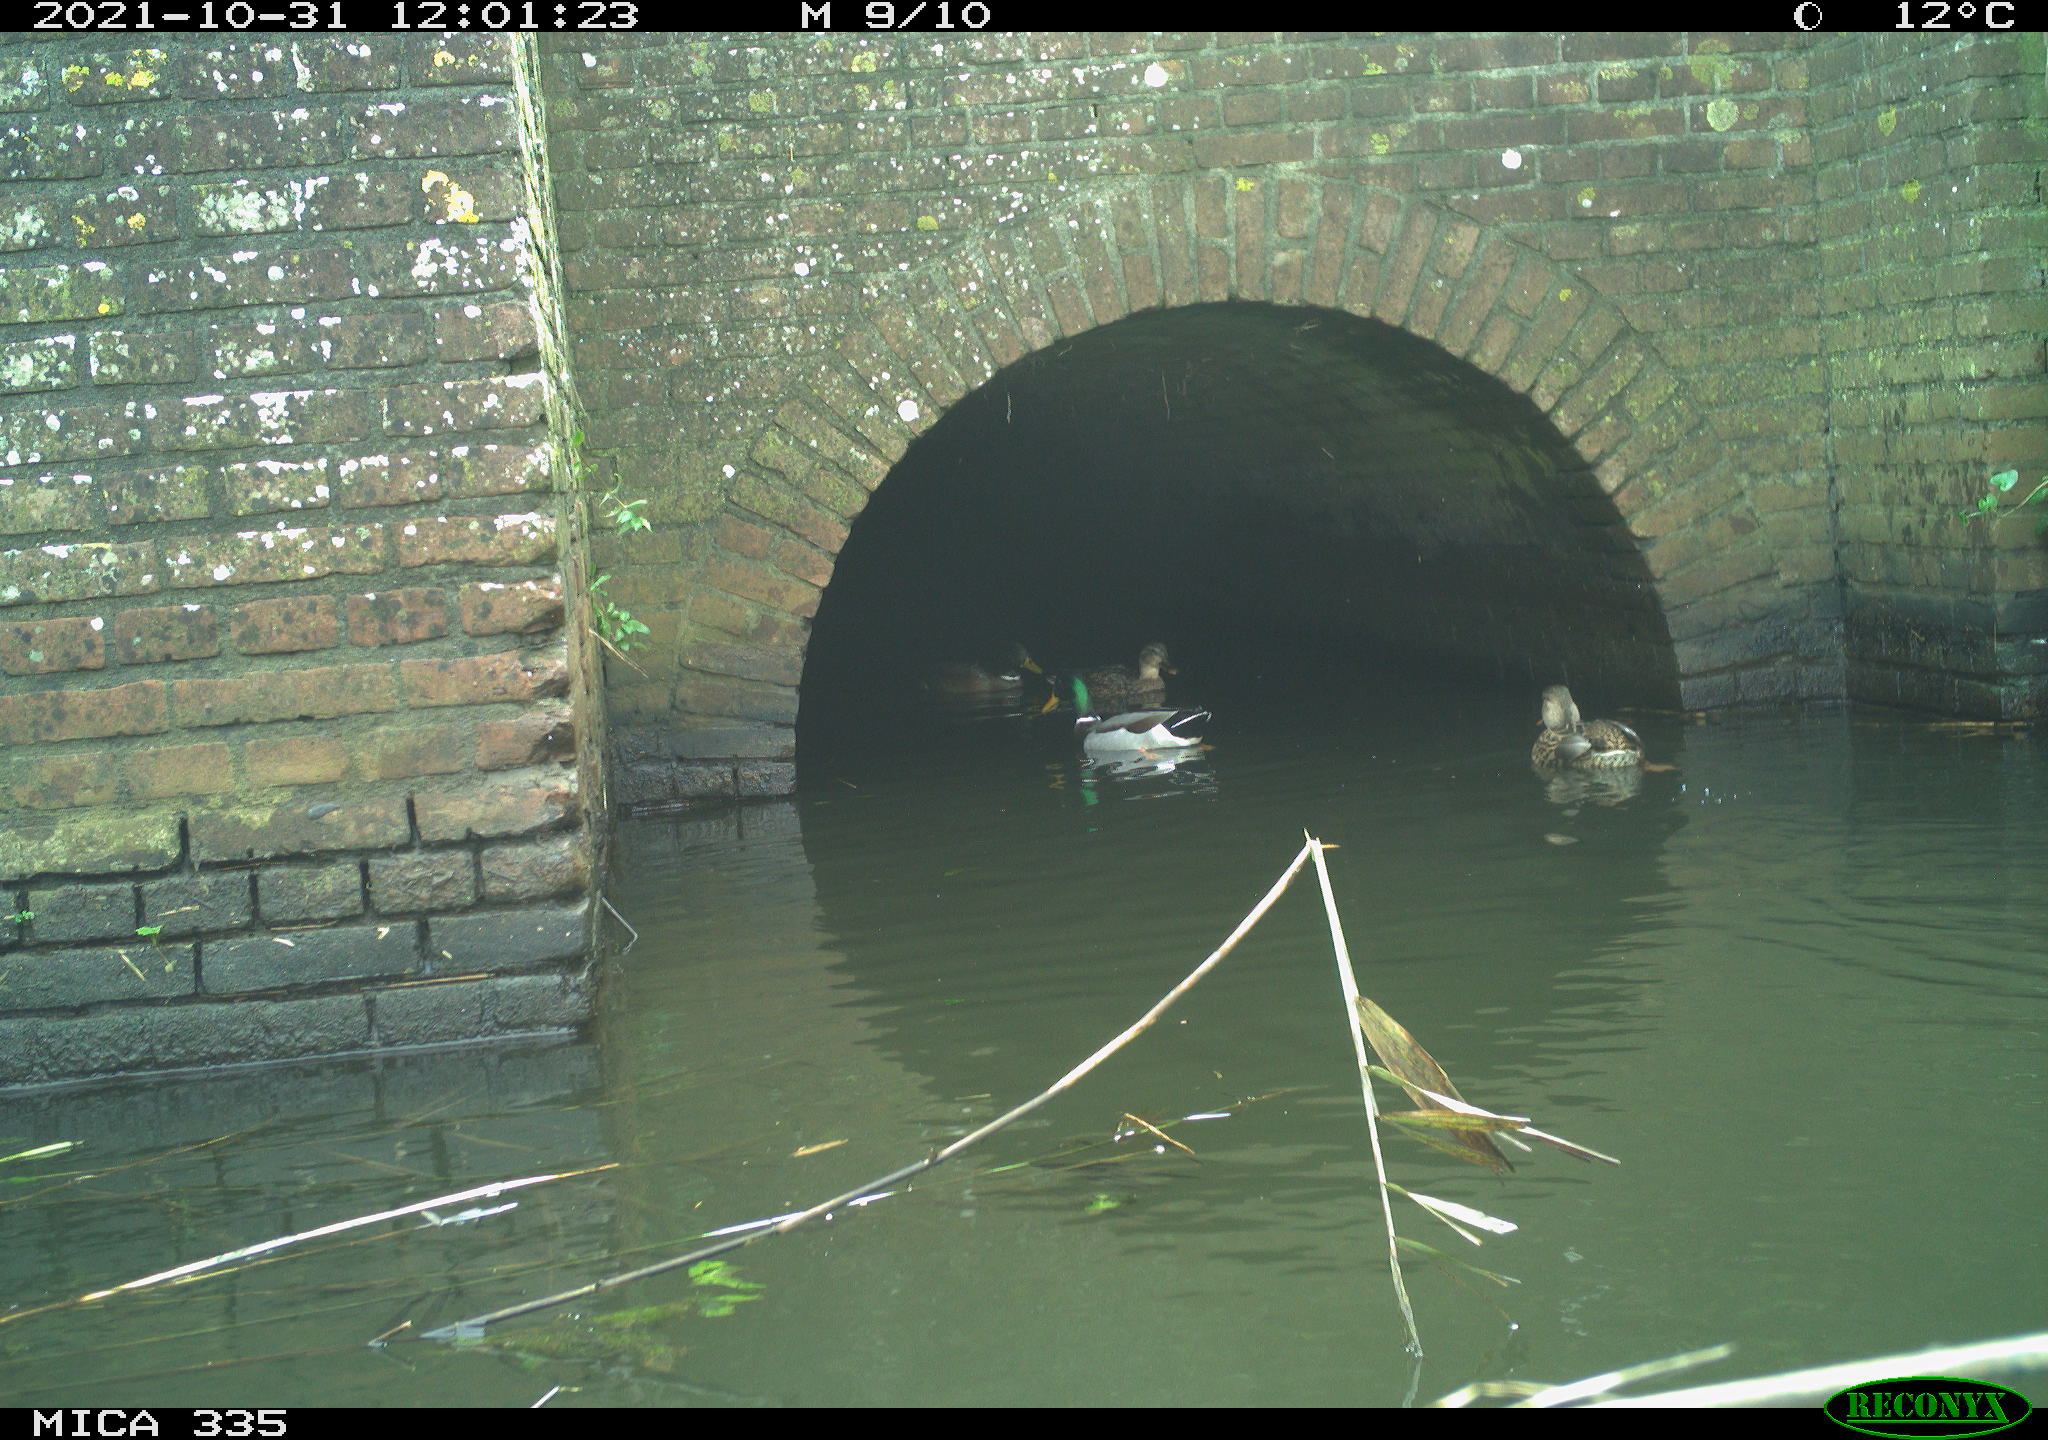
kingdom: Animalia
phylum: Chordata
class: Aves
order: Anseriformes
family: Anatidae
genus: Anas
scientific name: Anas platyrhynchos
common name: Mallard
